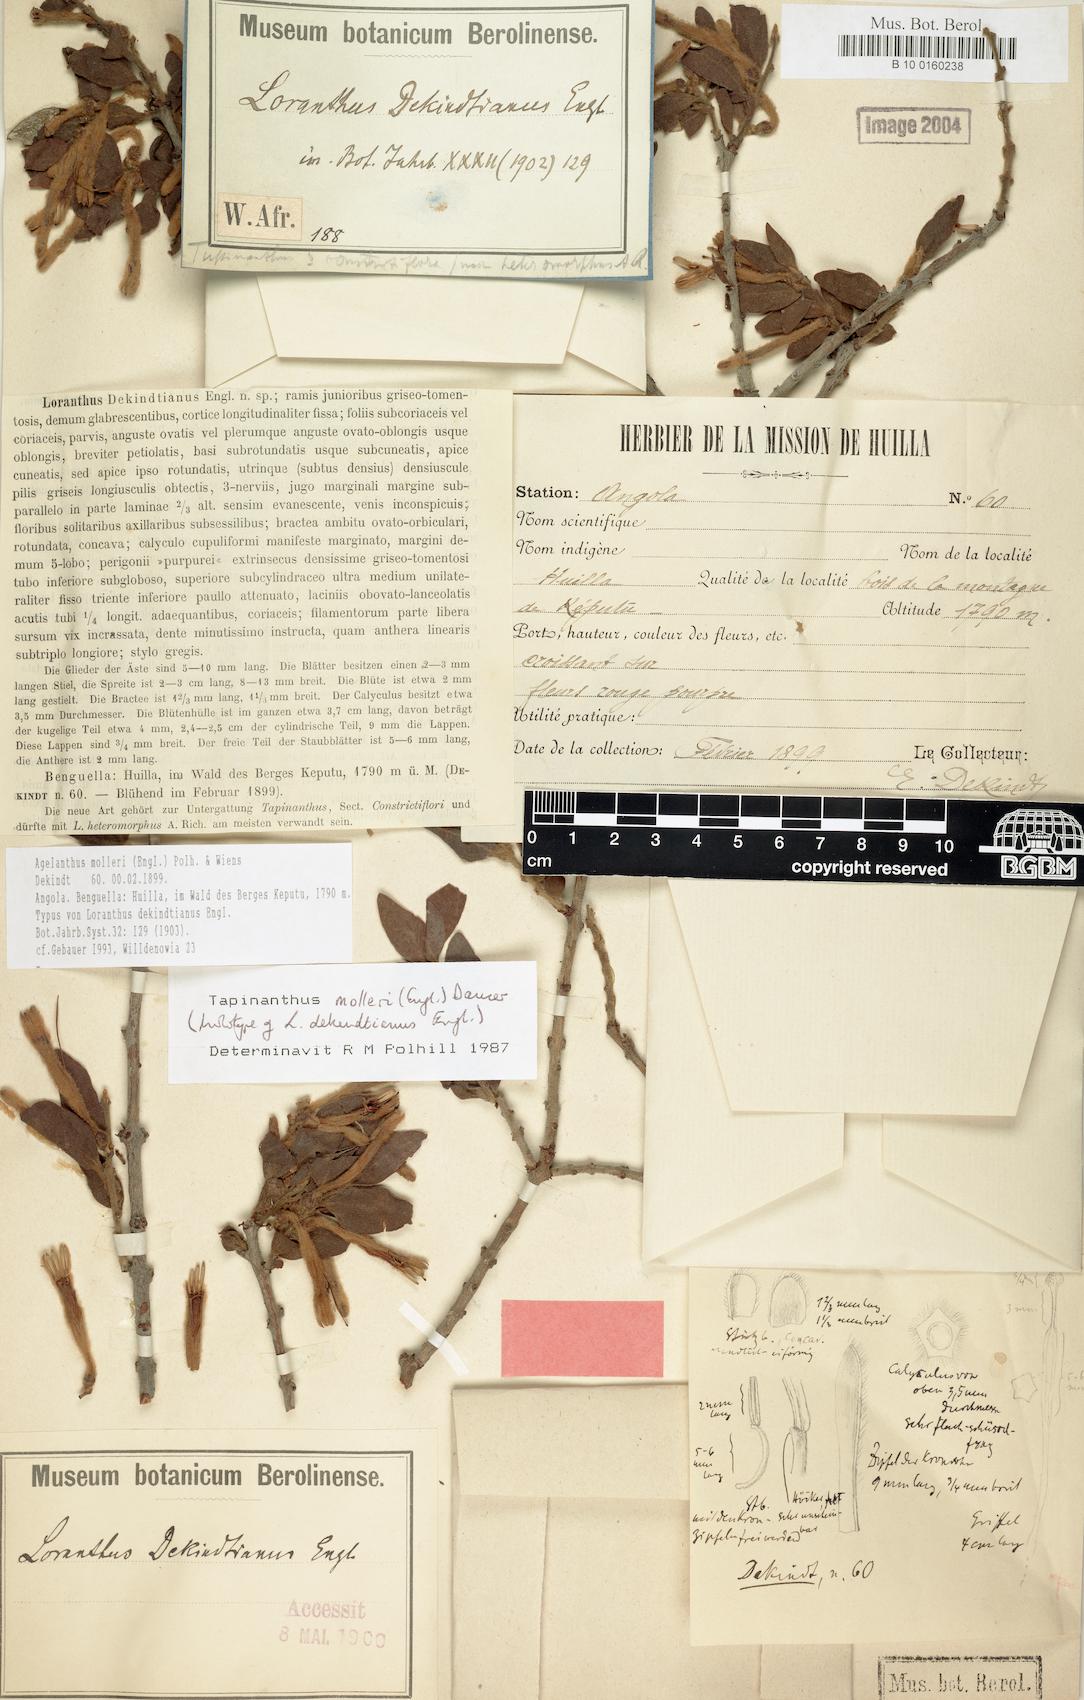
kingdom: Plantae
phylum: Tracheophyta
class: Magnoliopsida
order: Santalales
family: Loranthaceae
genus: Agelanthus
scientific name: Agelanthus molleri
